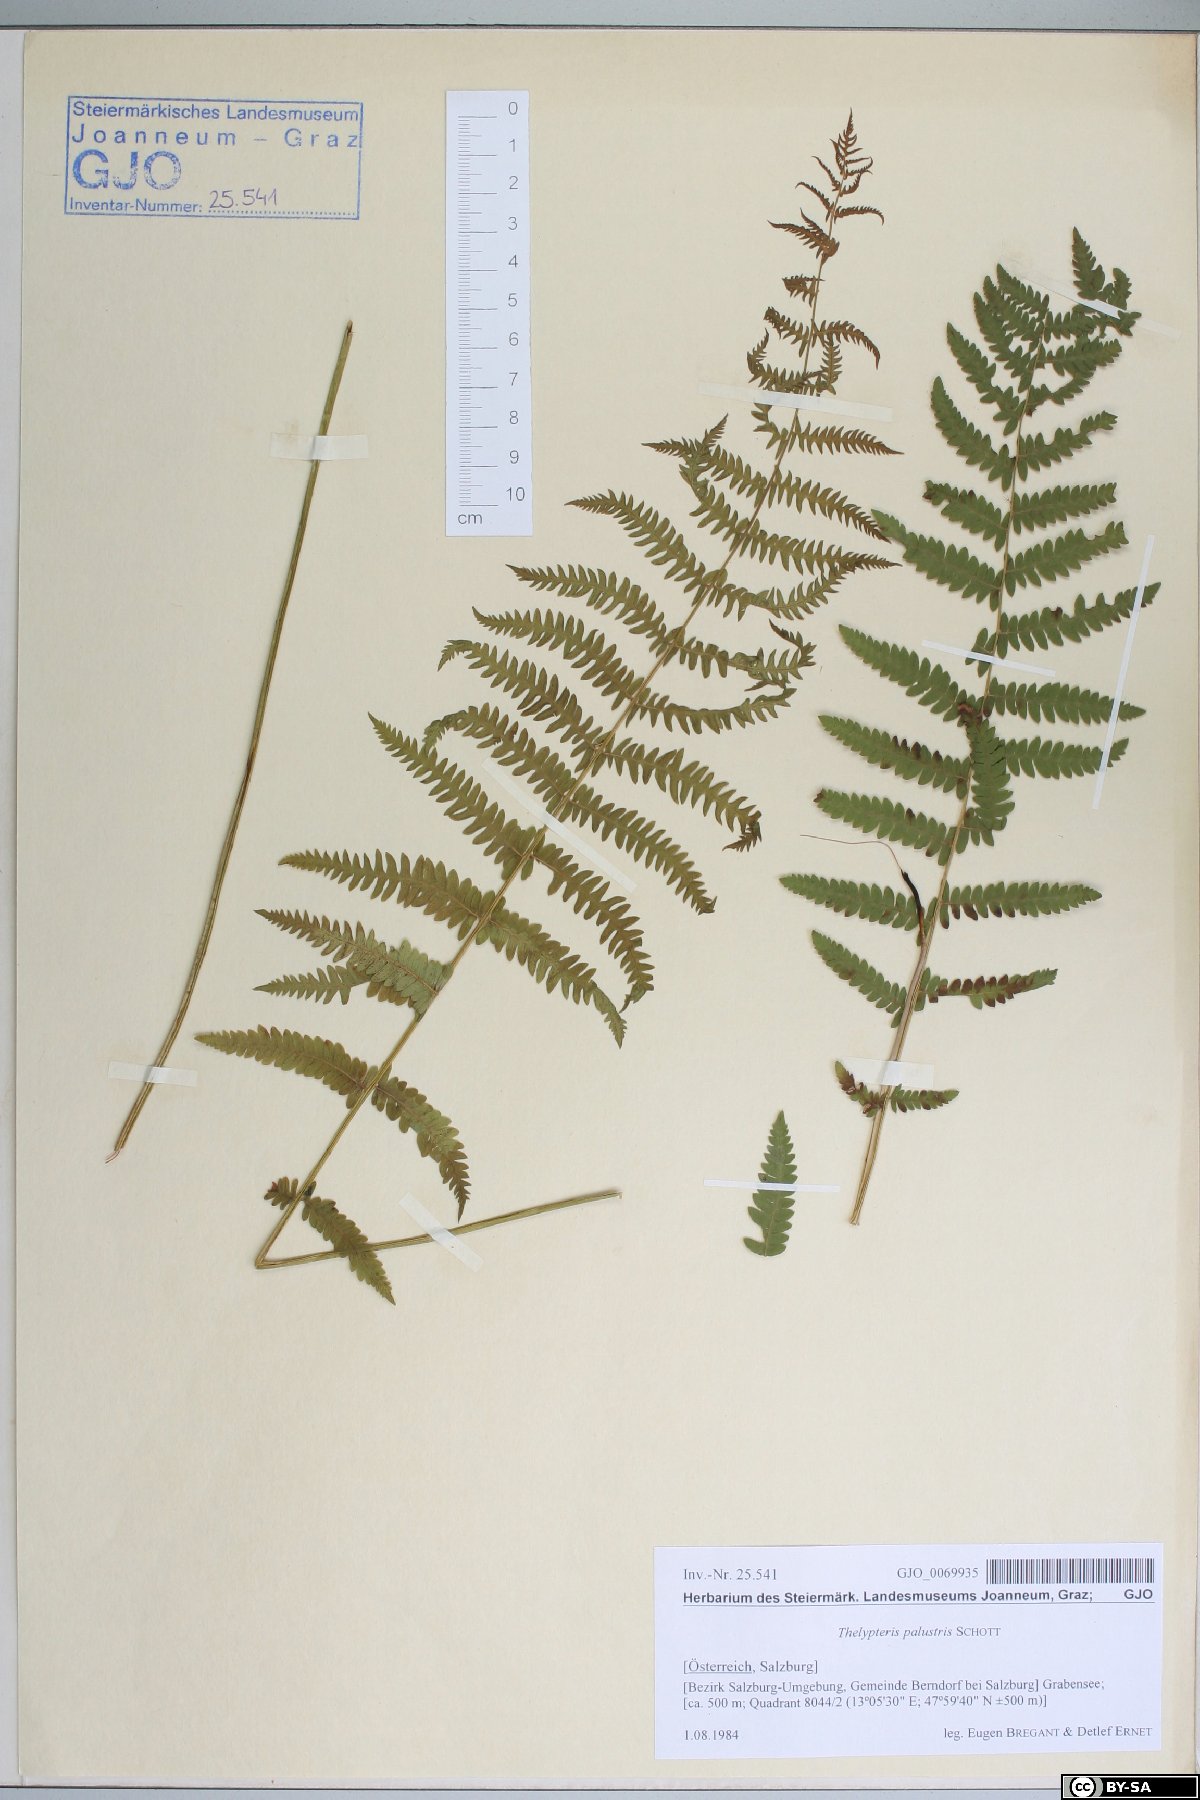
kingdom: Plantae
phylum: Tracheophyta
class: Polypodiopsida
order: Polypodiales
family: Thelypteridaceae
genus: Thelypteris
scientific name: Thelypteris palustris
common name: Marsh fern
